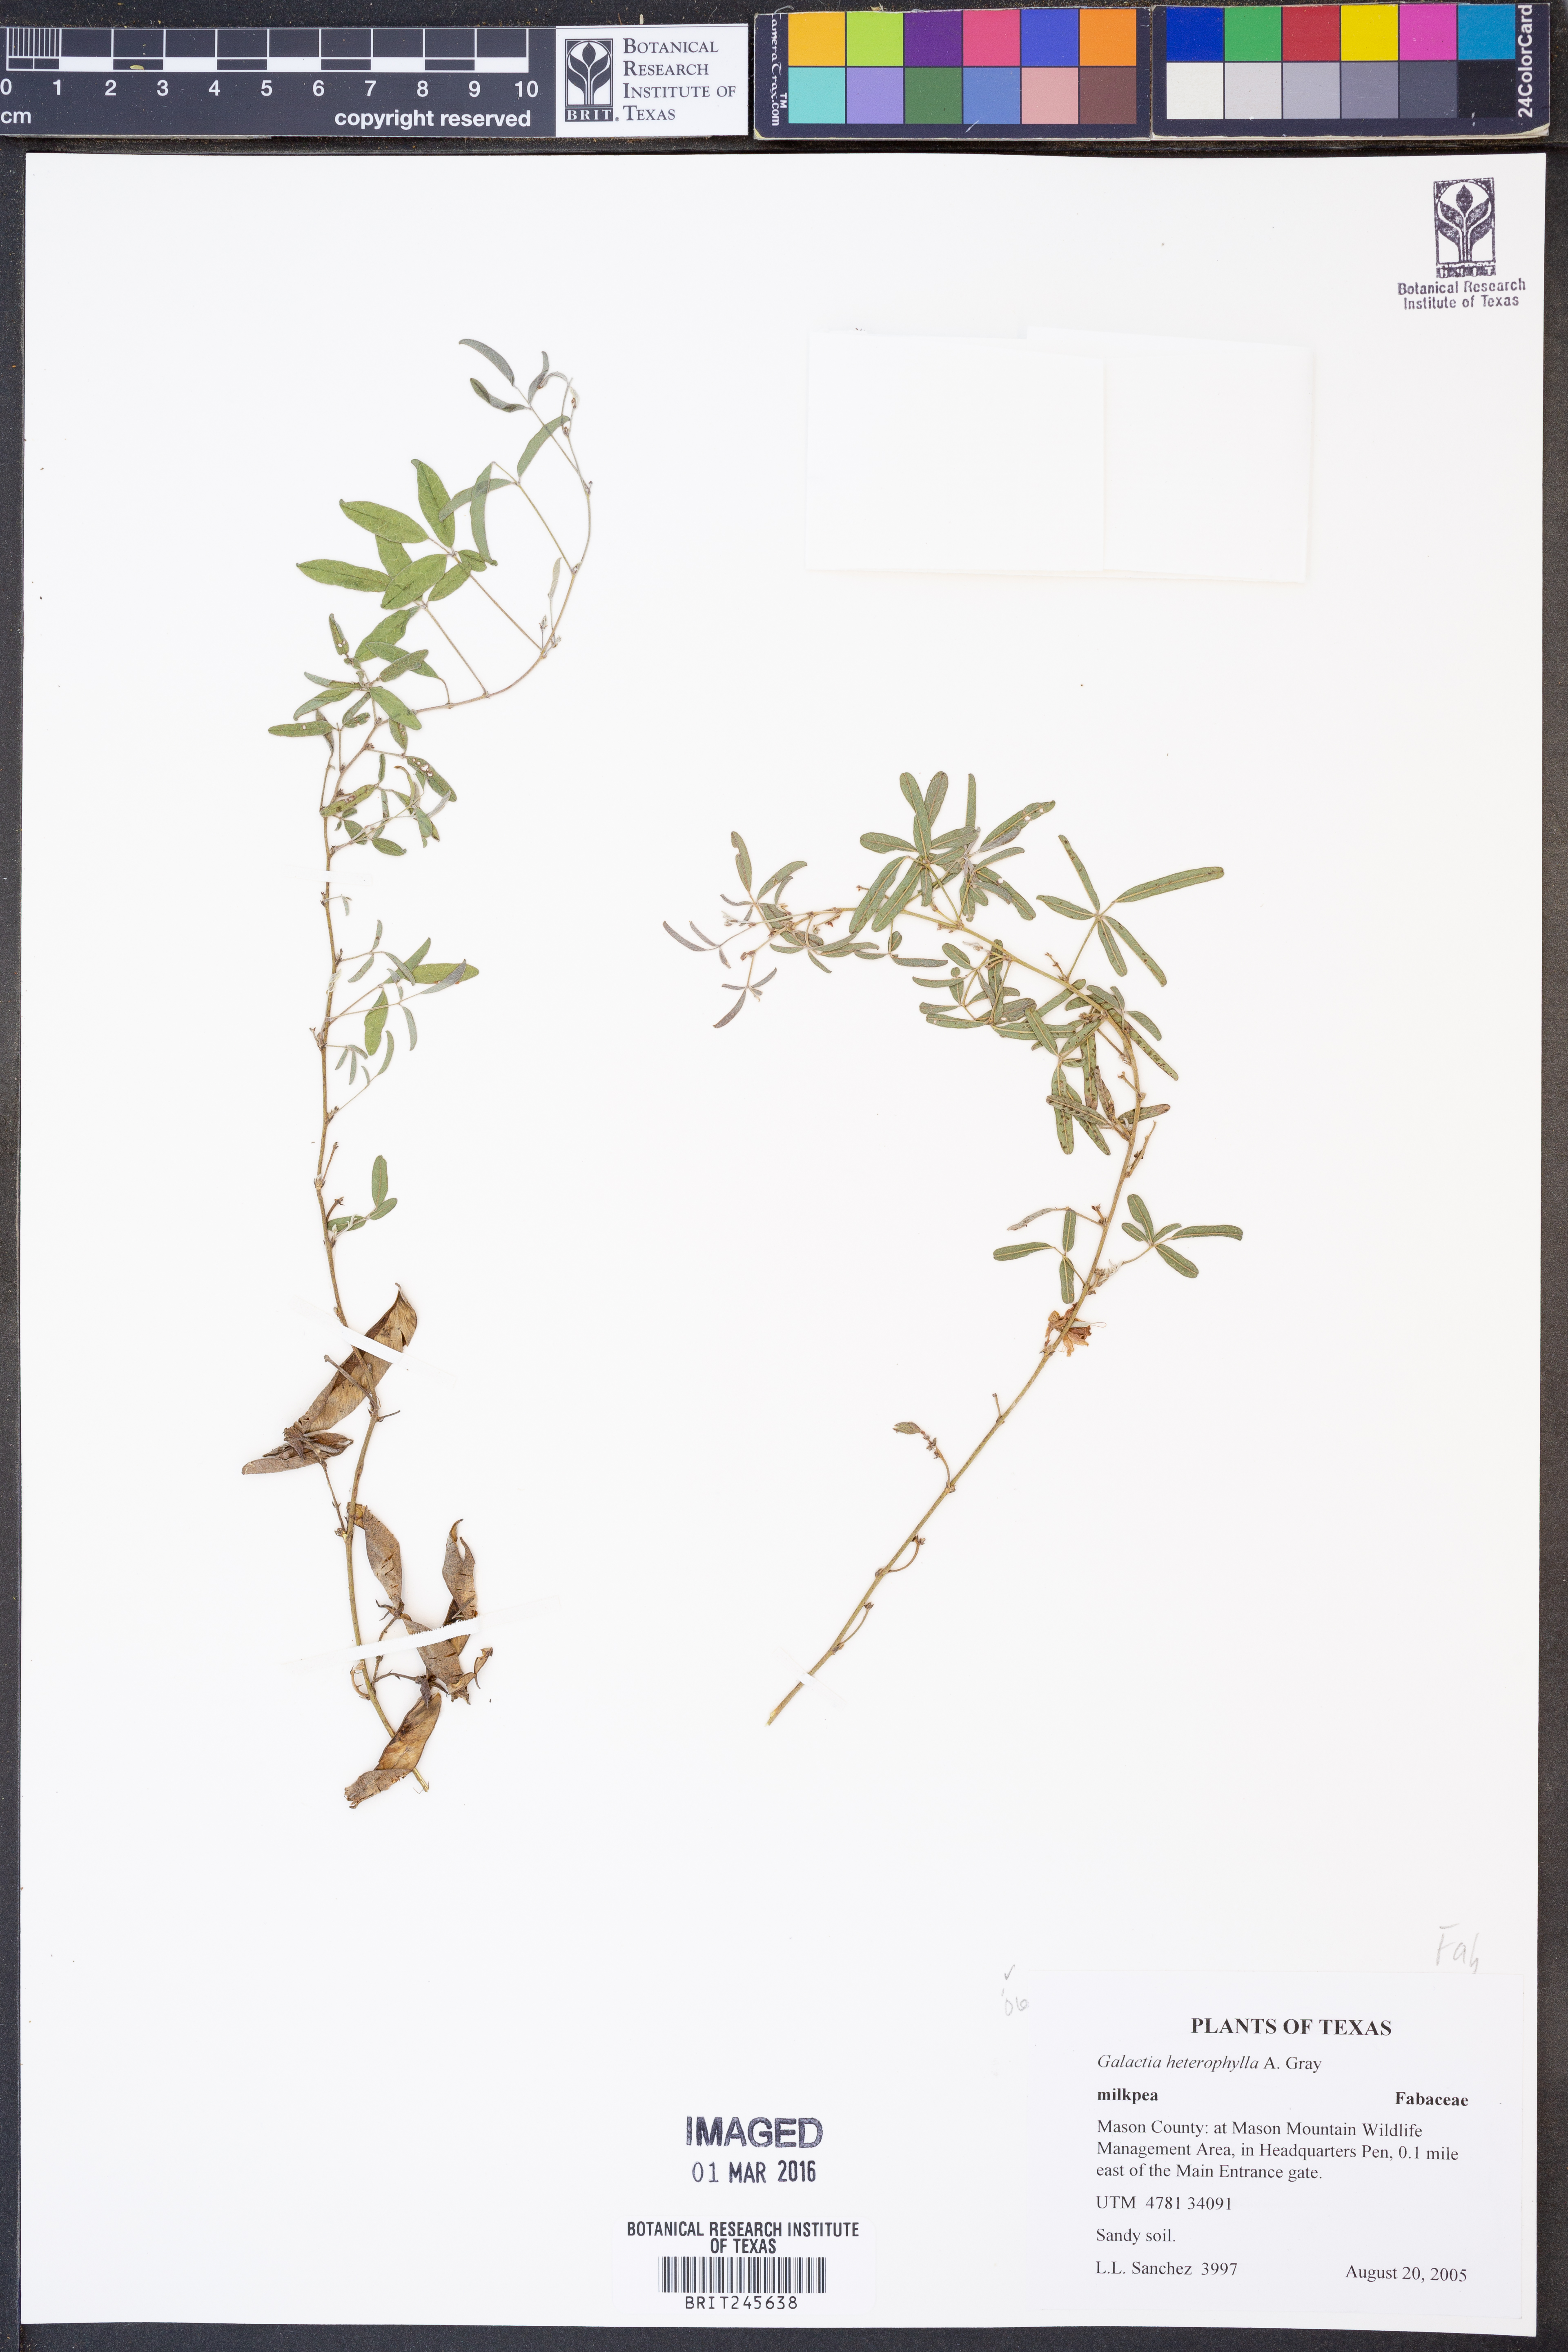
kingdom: Plantae
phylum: Tracheophyta
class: Magnoliopsida
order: Fabales
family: Fabaceae
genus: Galactia
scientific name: Galactia heterophylla
